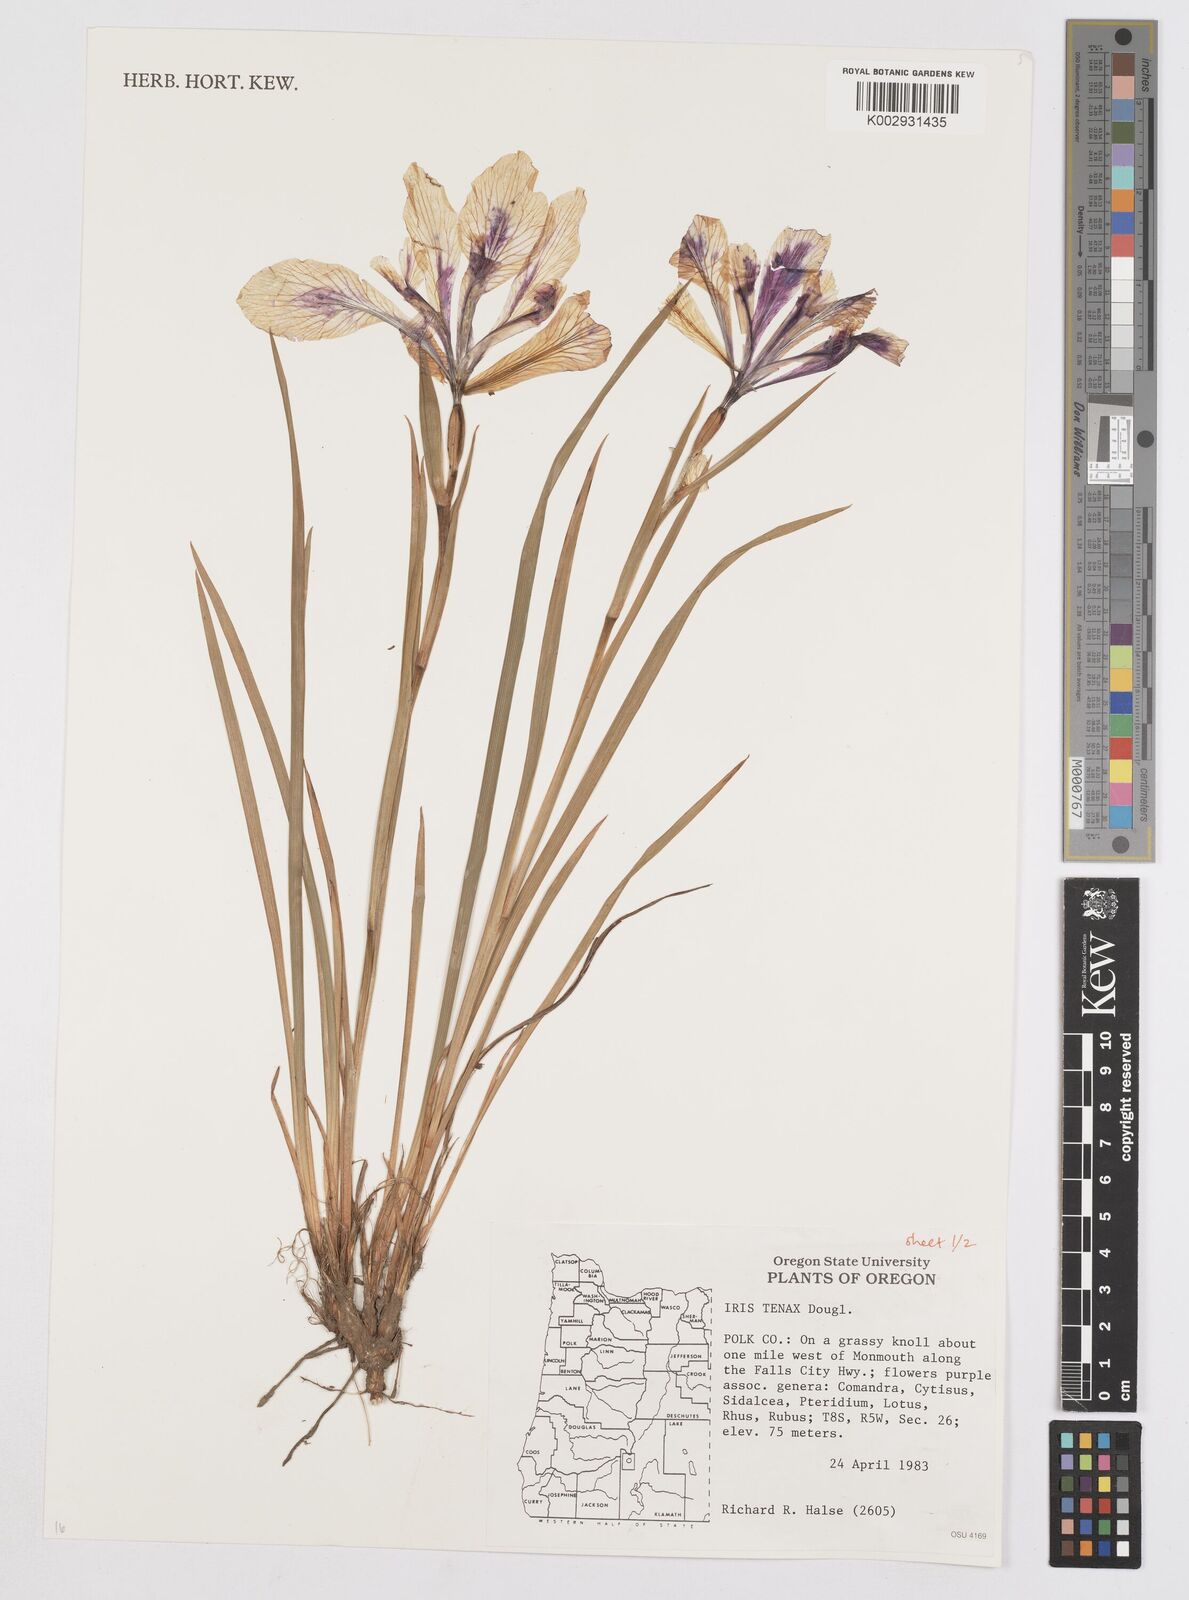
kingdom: Plantae
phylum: Tracheophyta
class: Liliopsida
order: Asparagales
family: Iridaceae
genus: Iris
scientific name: Iris tenax
